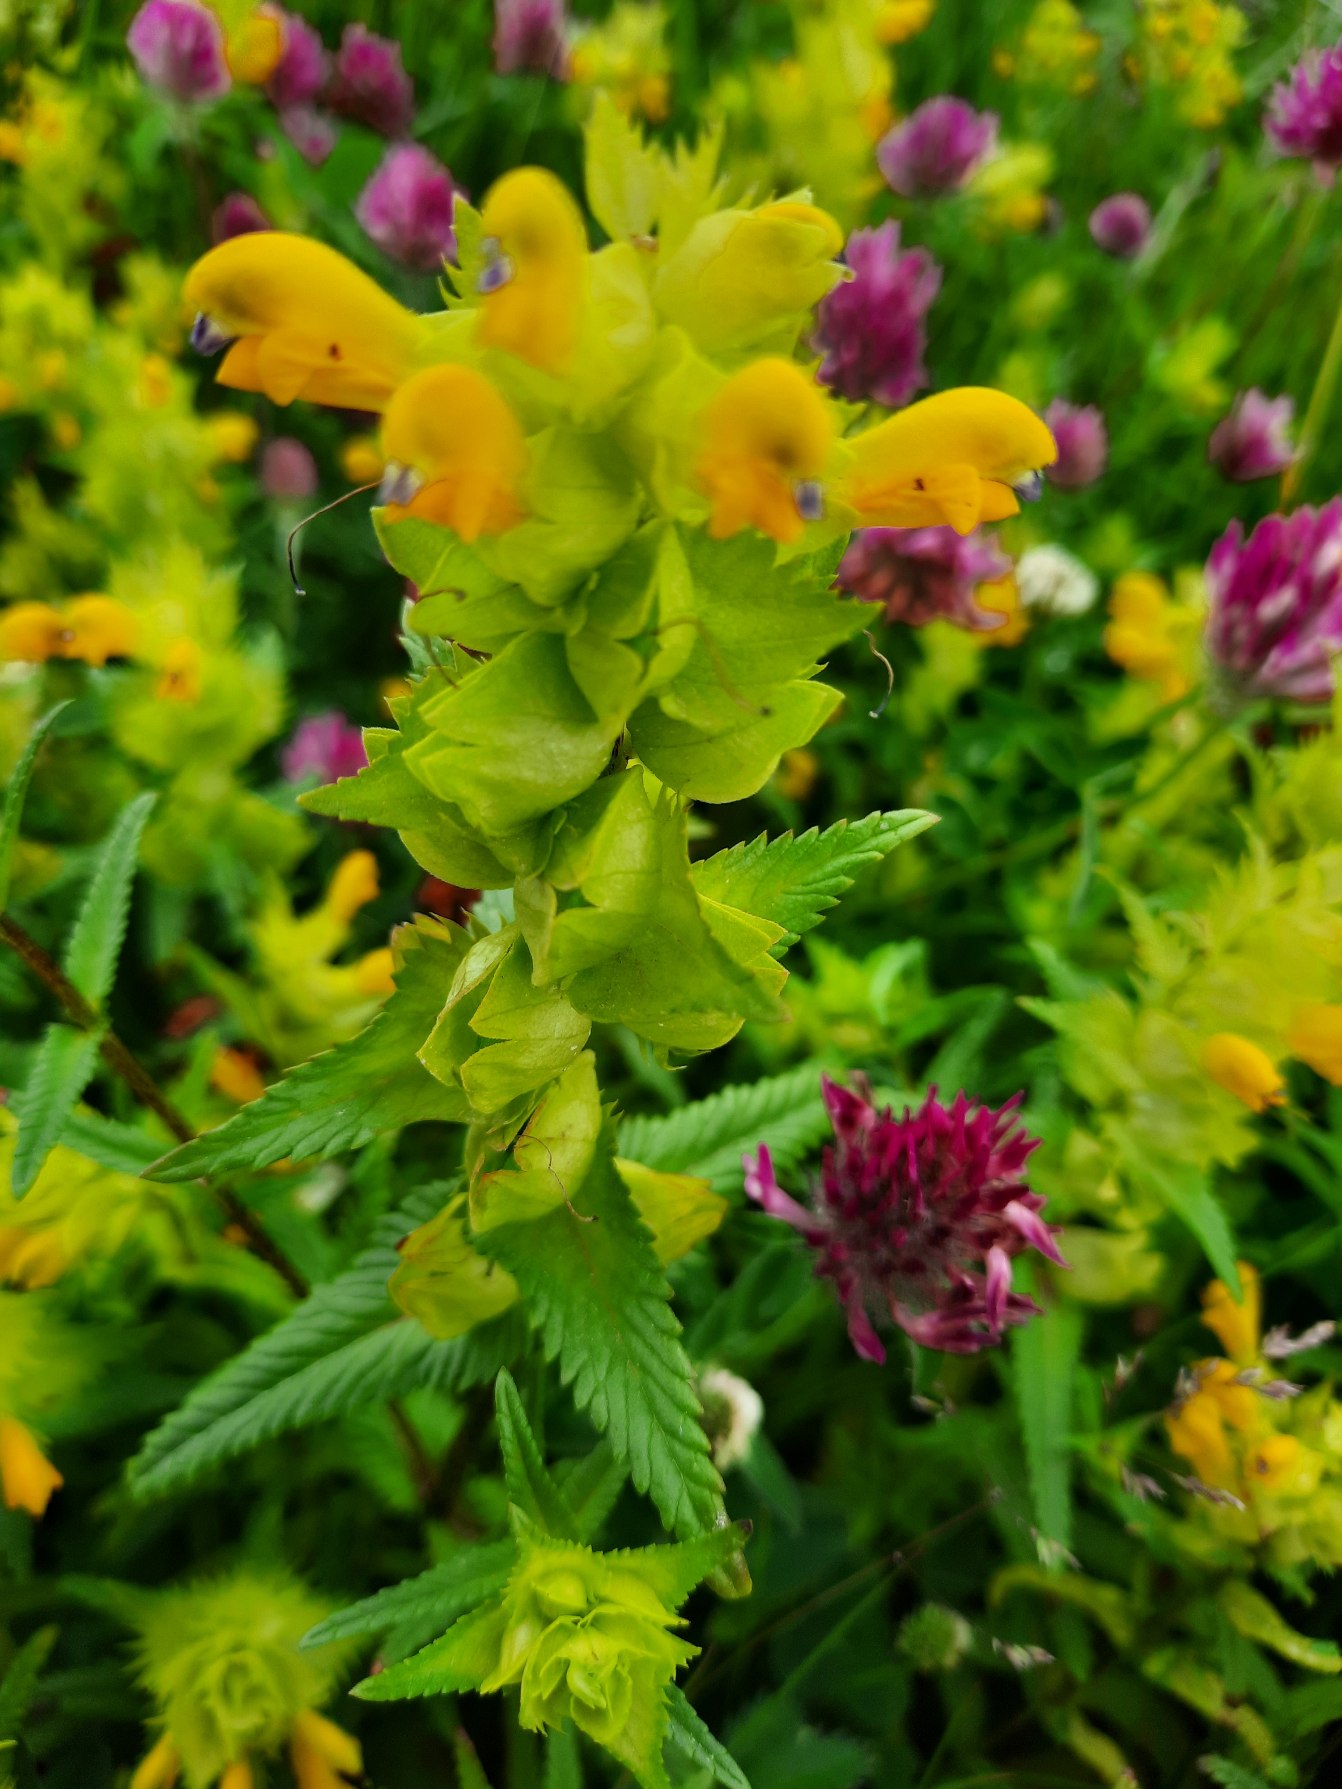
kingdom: Plantae
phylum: Tracheophyta
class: Magnoliopsida
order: Lamiales
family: Orobanchaceae
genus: Rhinanthus
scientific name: Rhinanthus
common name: Stor skjaller
